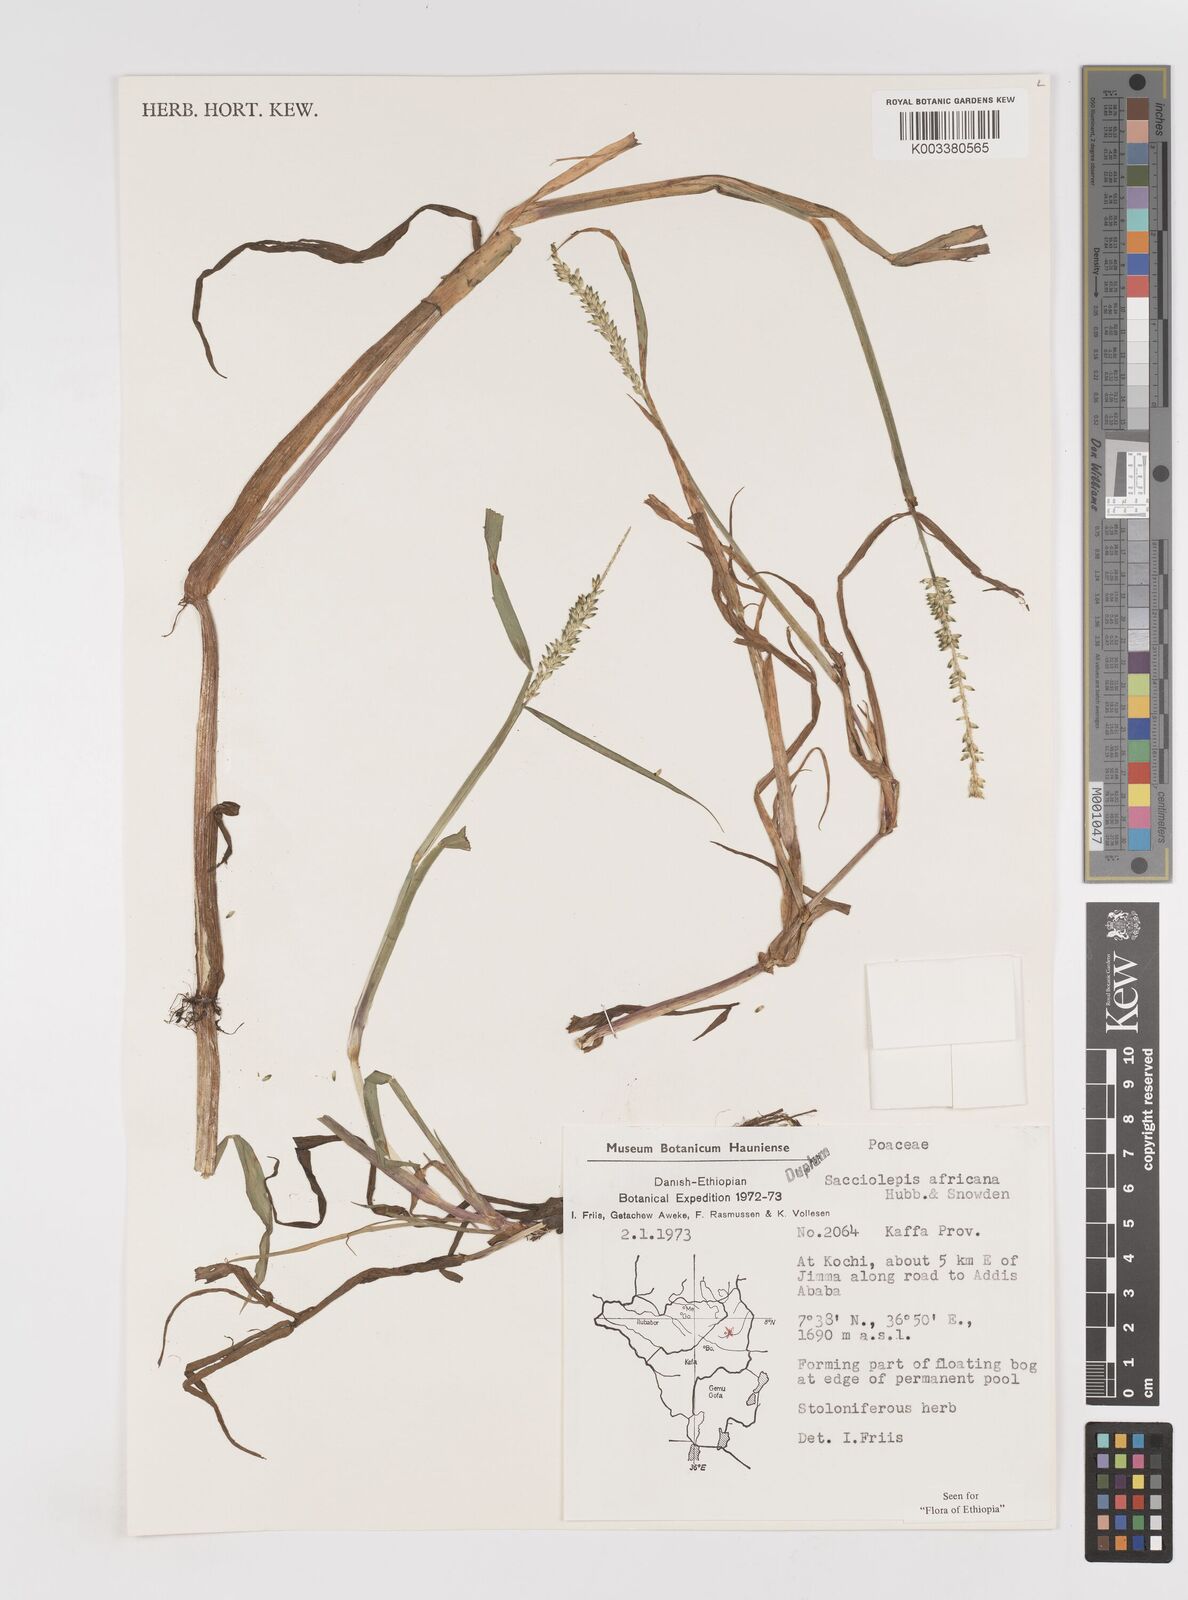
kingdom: Plantae
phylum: Tracheophyta
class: Liliopsida
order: Poales
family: Poaceae
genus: Sacciolepis
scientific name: Sacciolepis africana
